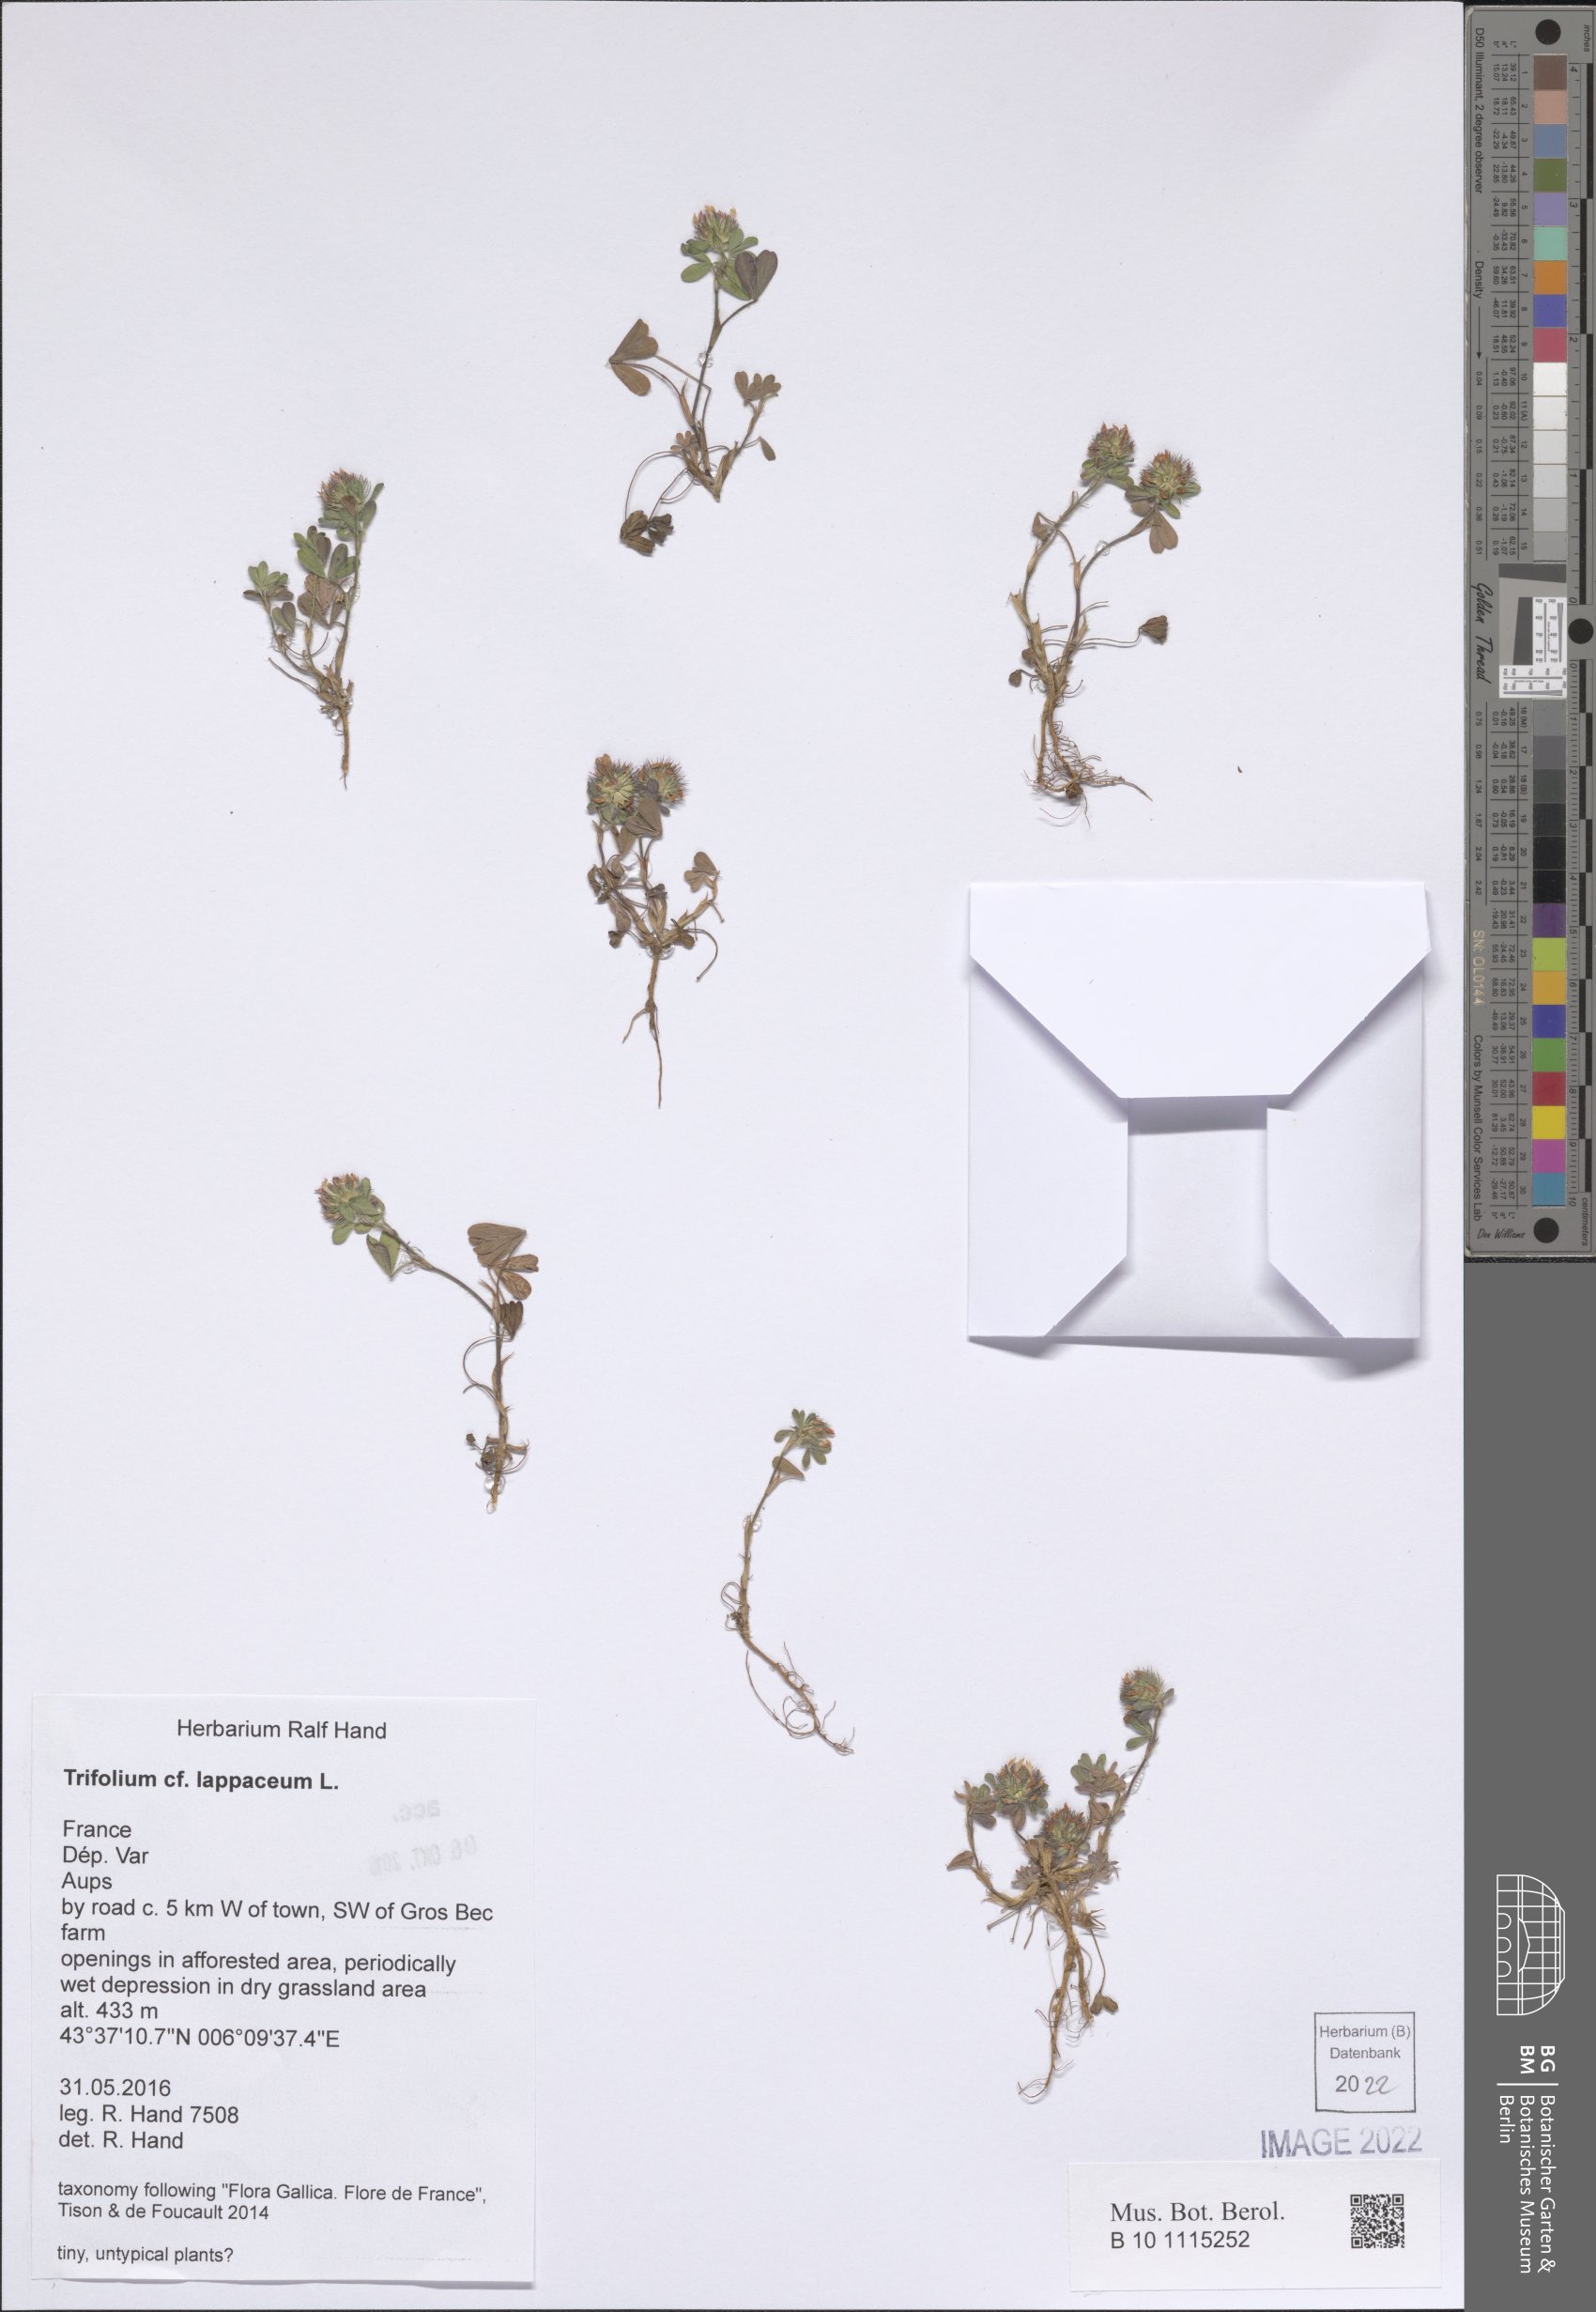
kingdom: Plantae
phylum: Tracheophyta
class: Magnoliopsida
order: Fabales
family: Fabaceae
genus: Trifolium
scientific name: Trifolium lappaceum
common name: Bur clover
